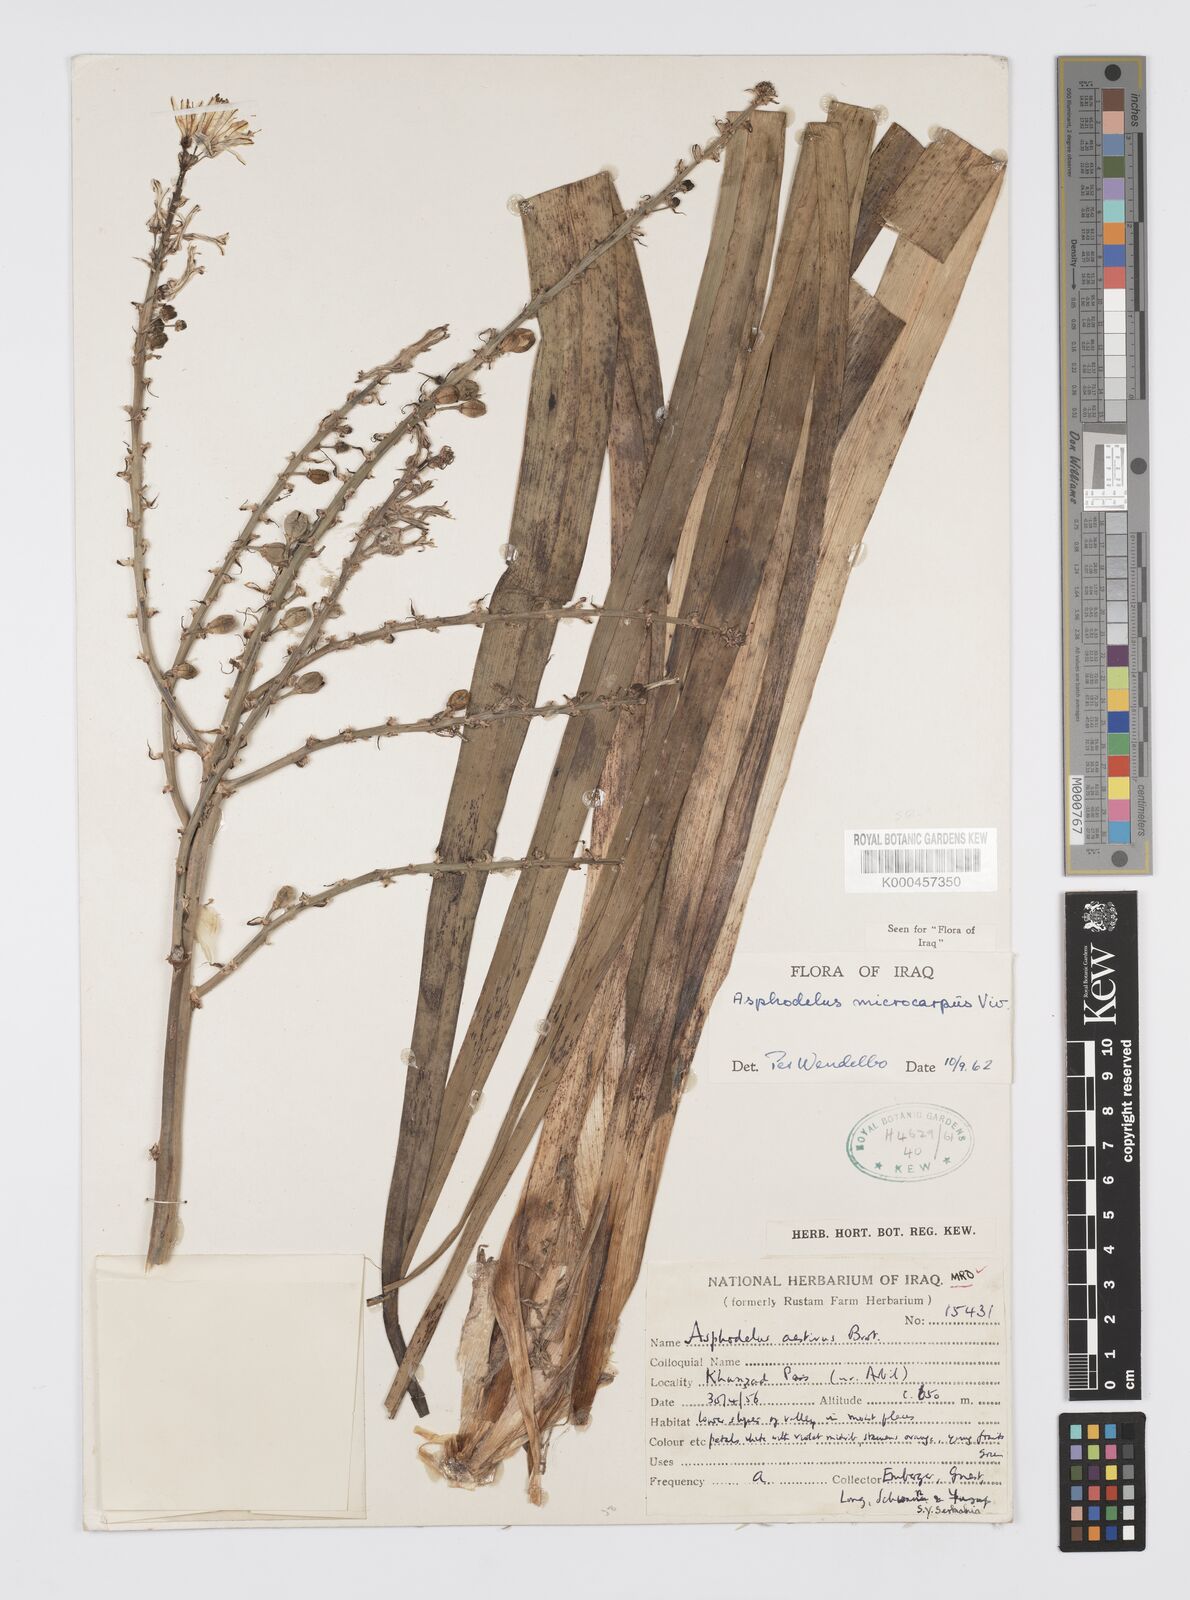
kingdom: Plantae
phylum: Tracheophyta
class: Liliopsida
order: Asparagales
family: Asphodelaceae
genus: Asphodelus
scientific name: Asphodelus aestivus
